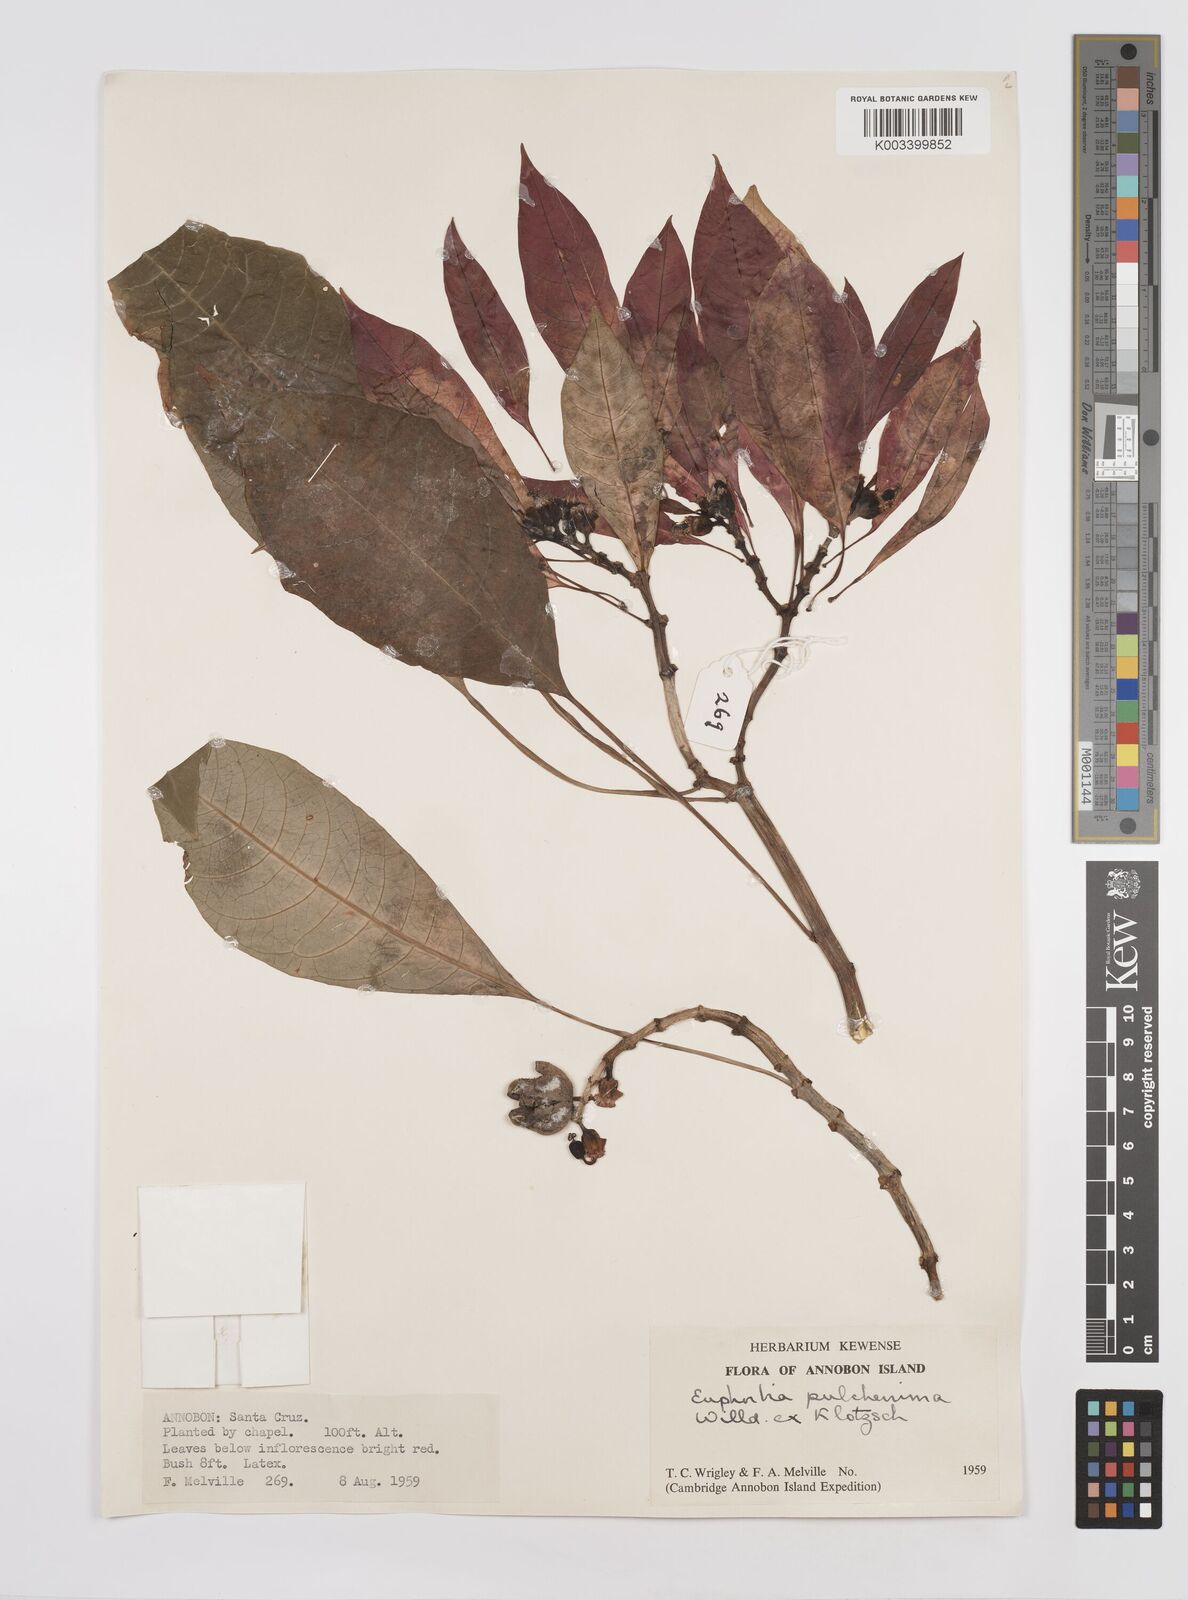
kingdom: Plantae
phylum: Tracheophyta
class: Magnoliopsida
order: Malpighiales
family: Euphorbiaceae
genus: Euphorbia
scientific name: Euphorbia pulcherrima
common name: Christmas-flower
